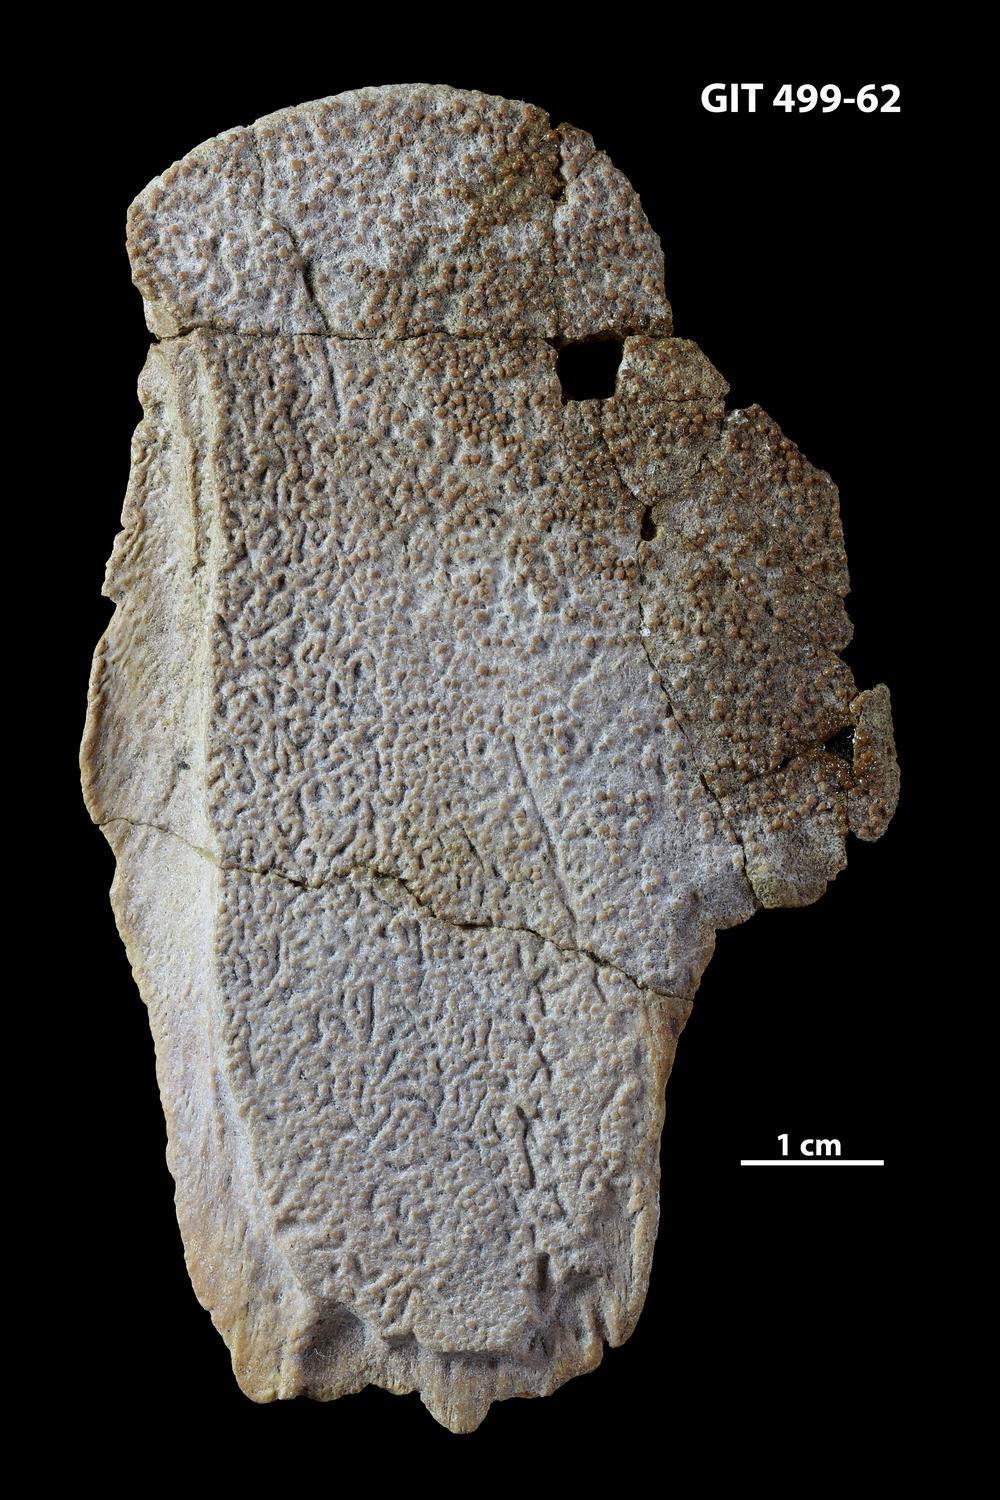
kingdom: Animalia
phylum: Chordata
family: Holoptychiidae
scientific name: Holoptychiidae
